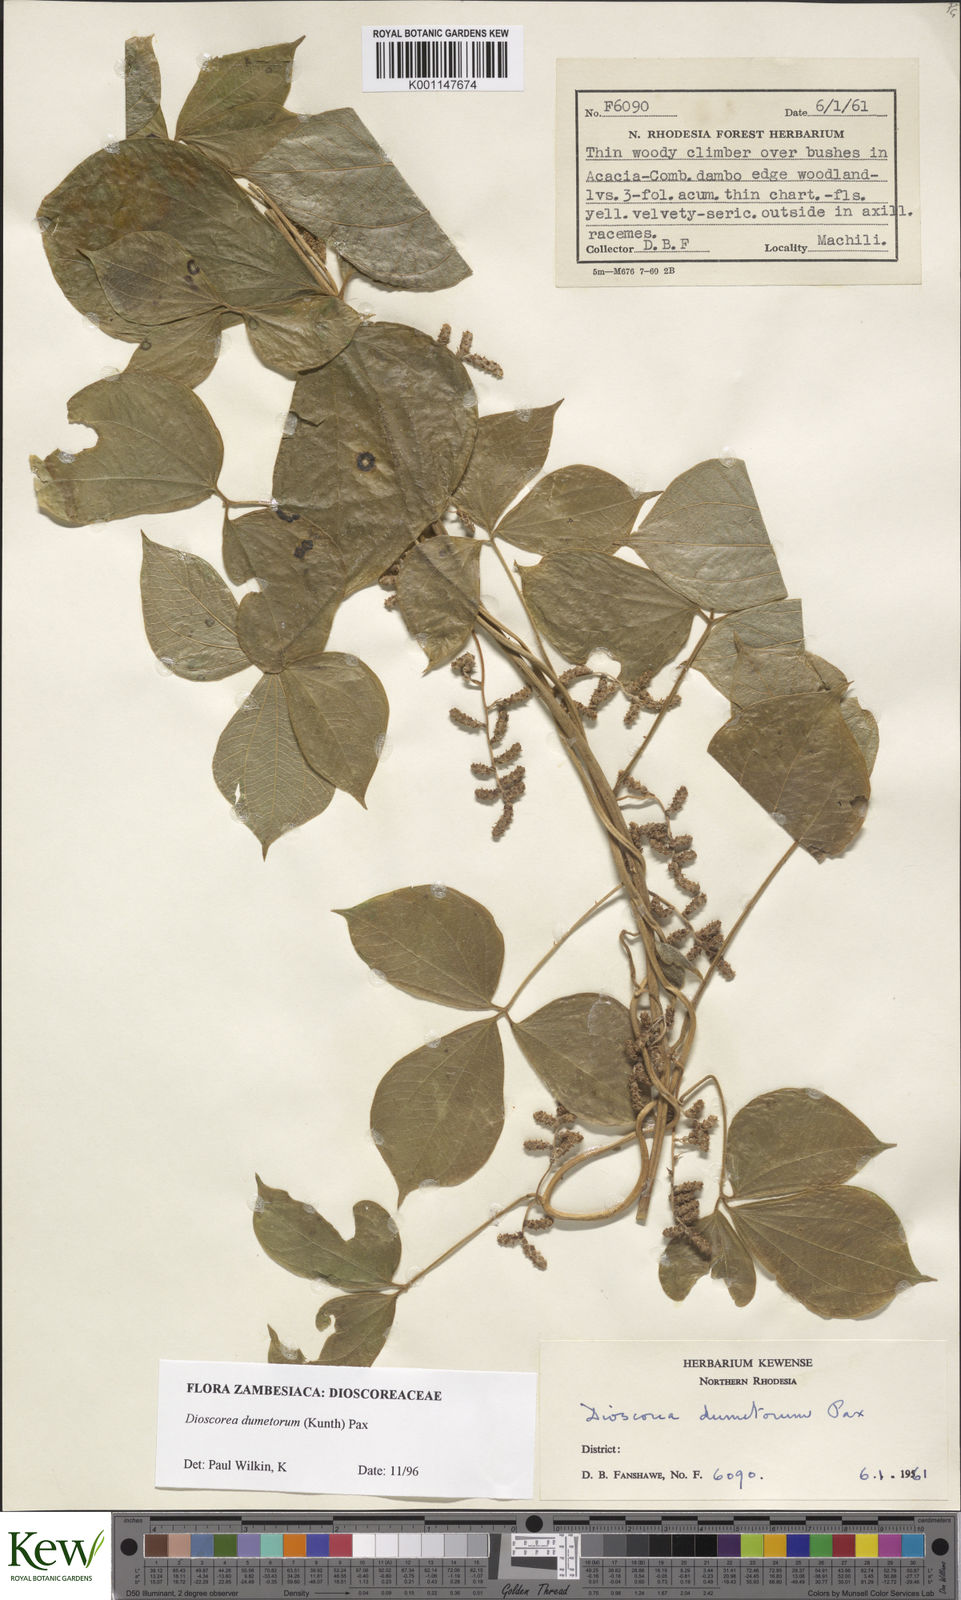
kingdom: Plantae
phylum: Tracheophyta
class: Liliopsida
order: Dioscoreales
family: Dioscoreaceae
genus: Dioscorea
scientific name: Dioscorea dumetorum
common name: African bitter yam
